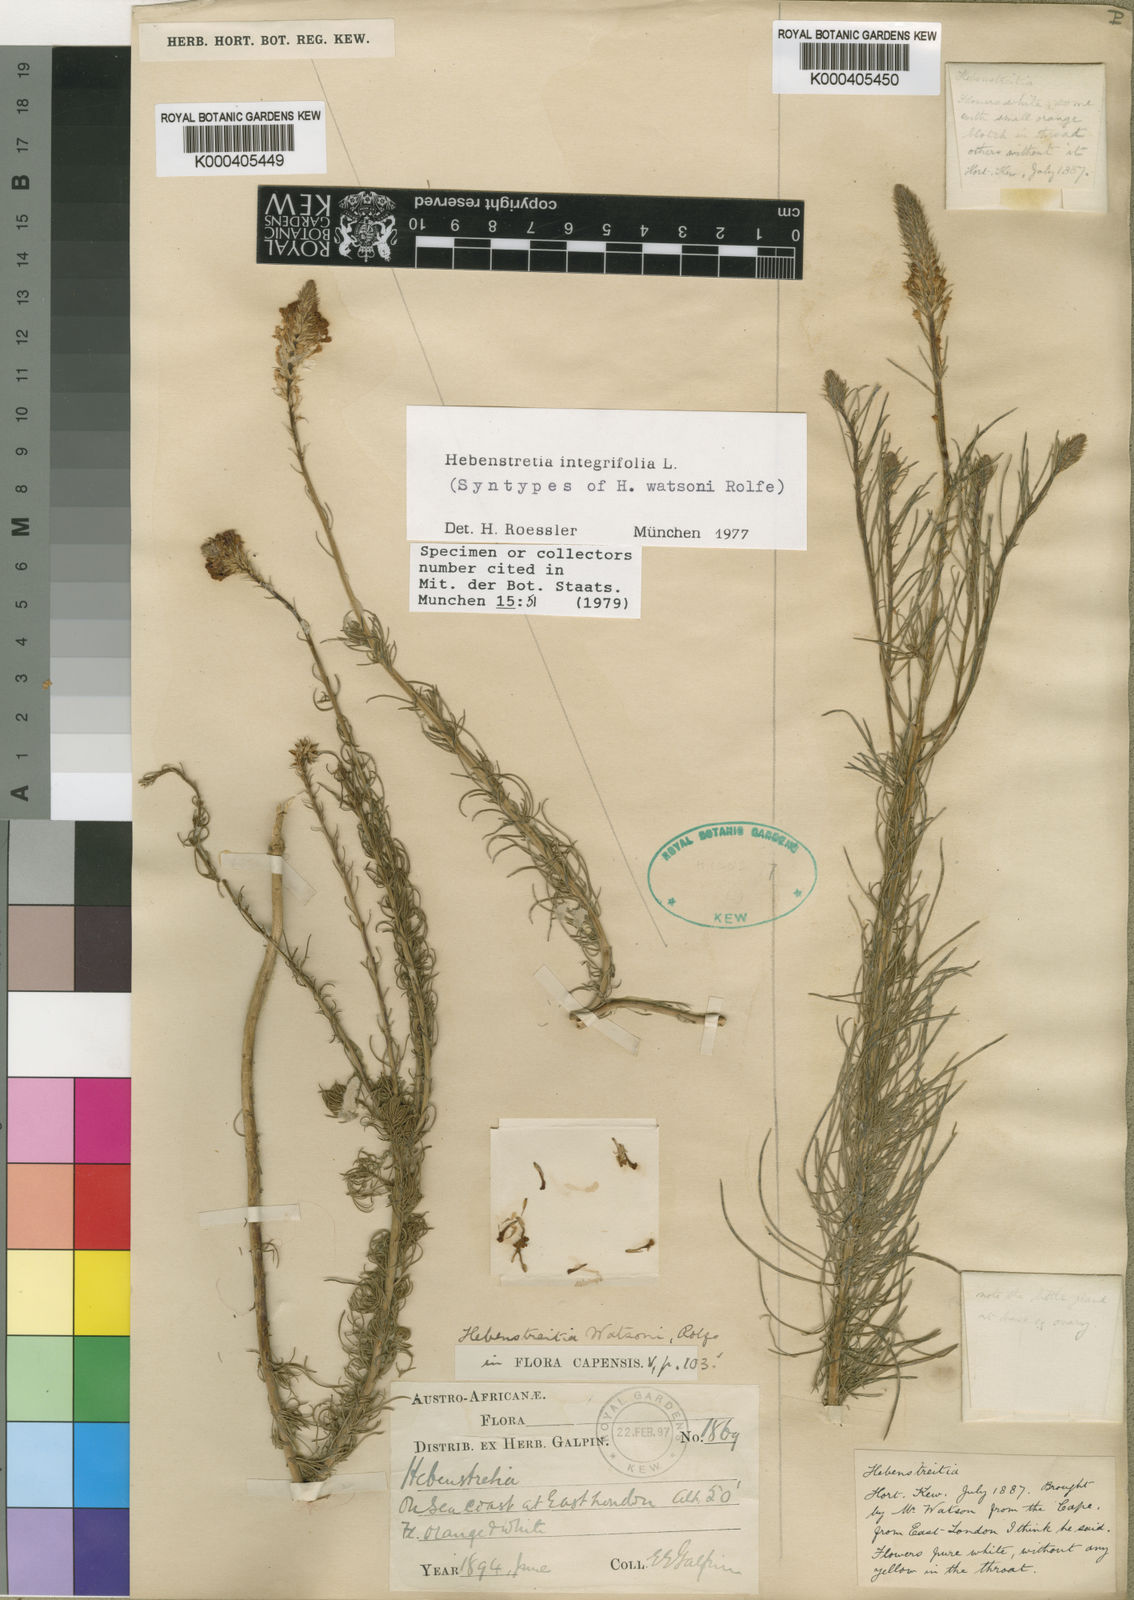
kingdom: Plantae
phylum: Tracheophyta
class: Magnoliopsida
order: Lamiales
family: Scrophulariaceae
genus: Hebenstretia
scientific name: Hebenstretia integrifolia
